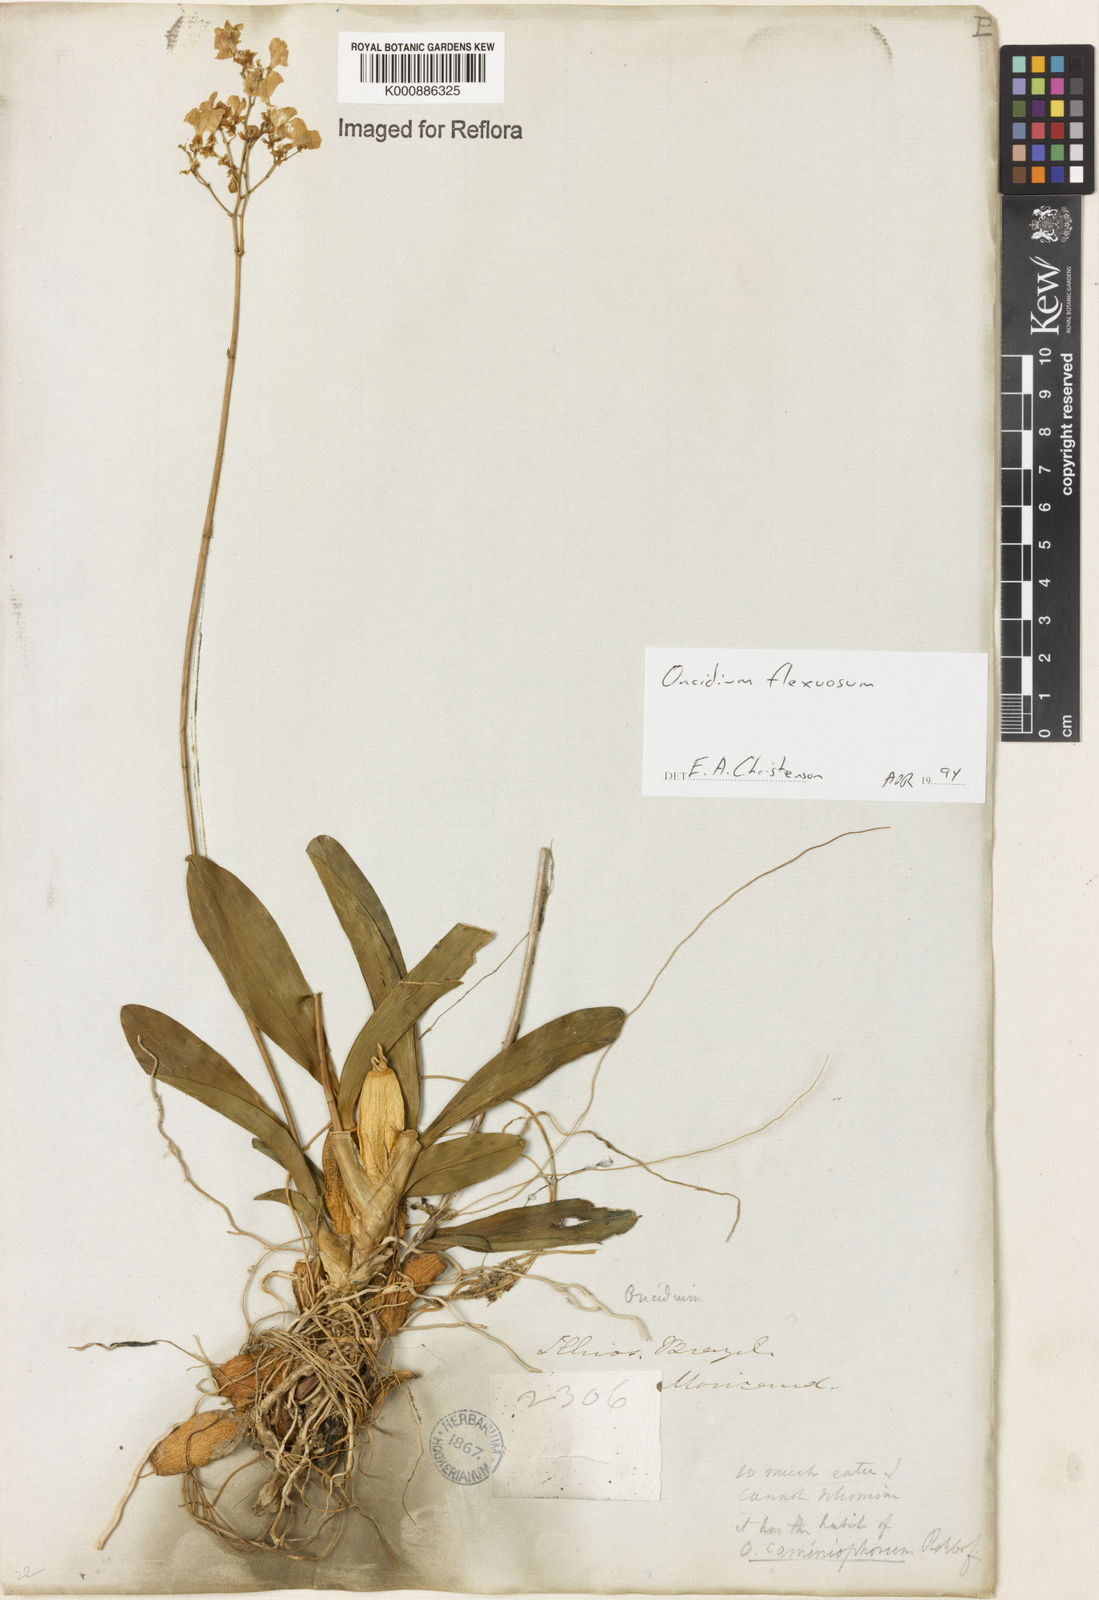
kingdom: Plantae
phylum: Tracheophyta
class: Liliopsida
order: Asparagales
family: Orchidaceae
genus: Gomesa
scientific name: Gomesa flexuosa
